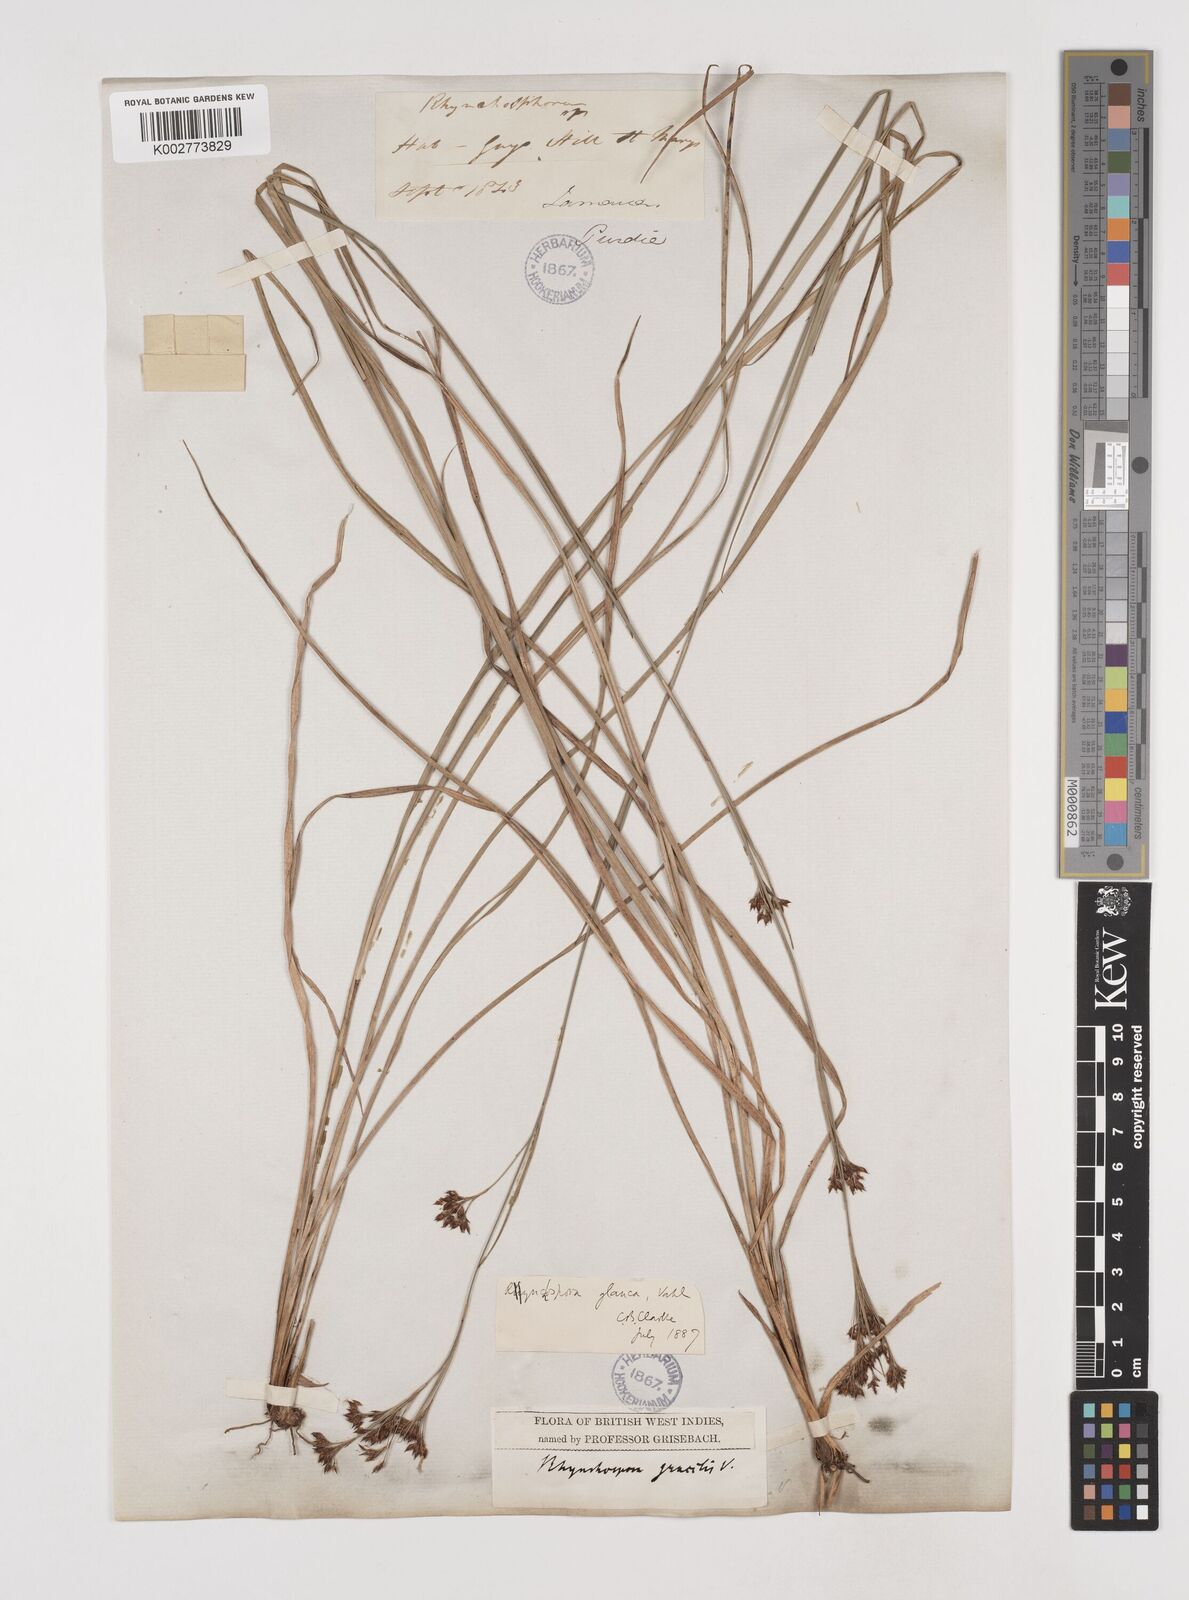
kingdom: Plantae
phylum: Tracheophyta
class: Liliopsida
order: Poales
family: Cyperaceae
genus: Rhynchospora
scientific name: Rhynchospora rugosa
